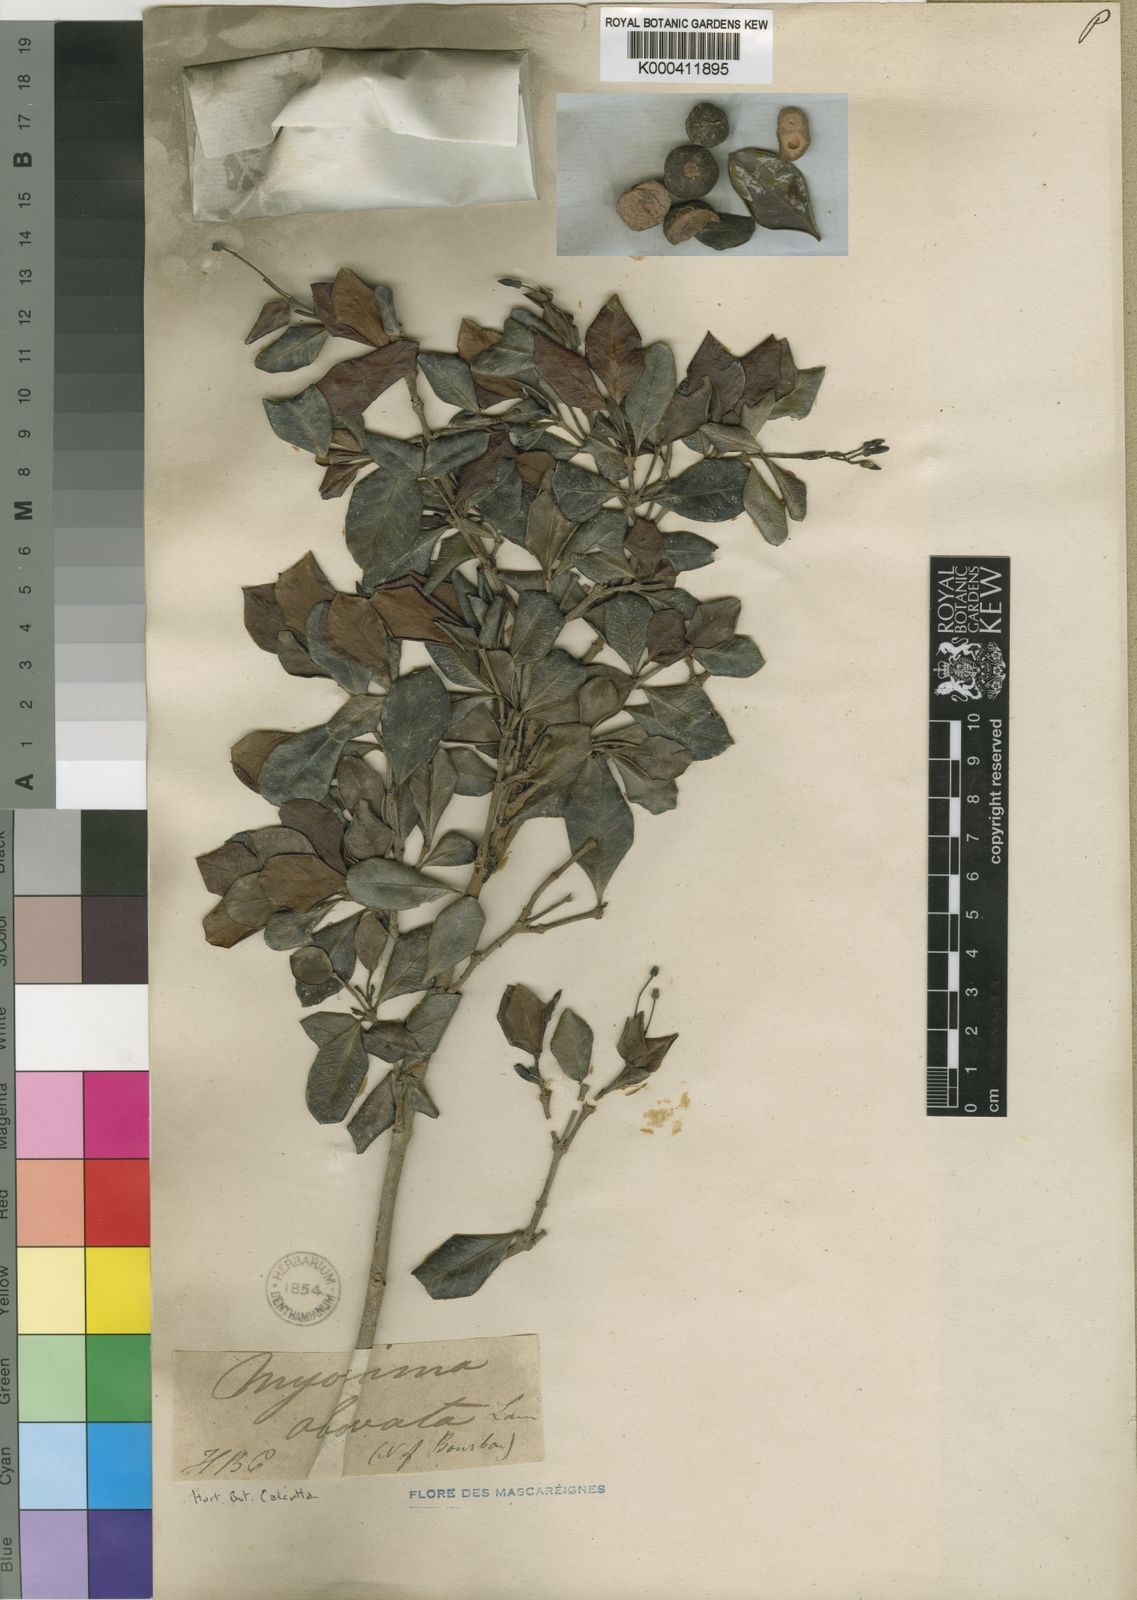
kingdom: Plantae
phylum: Tracheophyta
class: Magnoliopsida
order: Gentianales
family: Rubiaceae
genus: Ixora
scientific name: Ixora nitens
